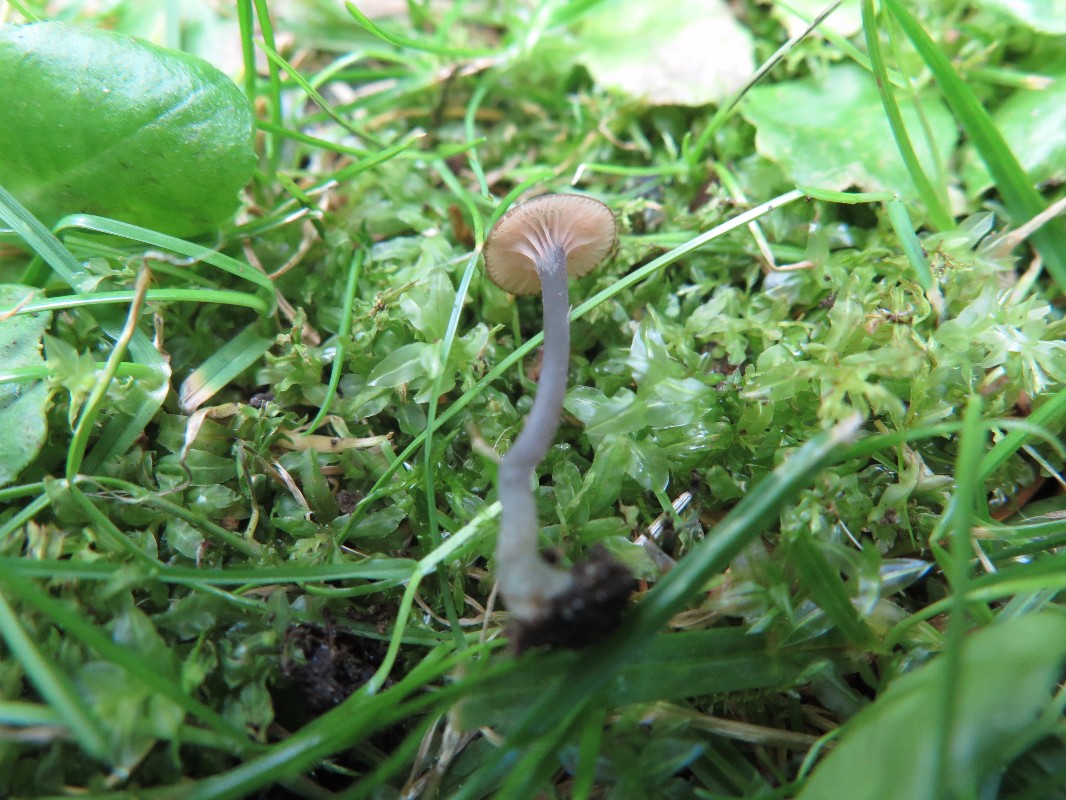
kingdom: Fungi
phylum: Basidiomycota
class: Agaricomycetes
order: Agaricales
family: Entolomataceae
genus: Entoloma
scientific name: Entoloma incarnatofuscescens
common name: tragt-rødblad
